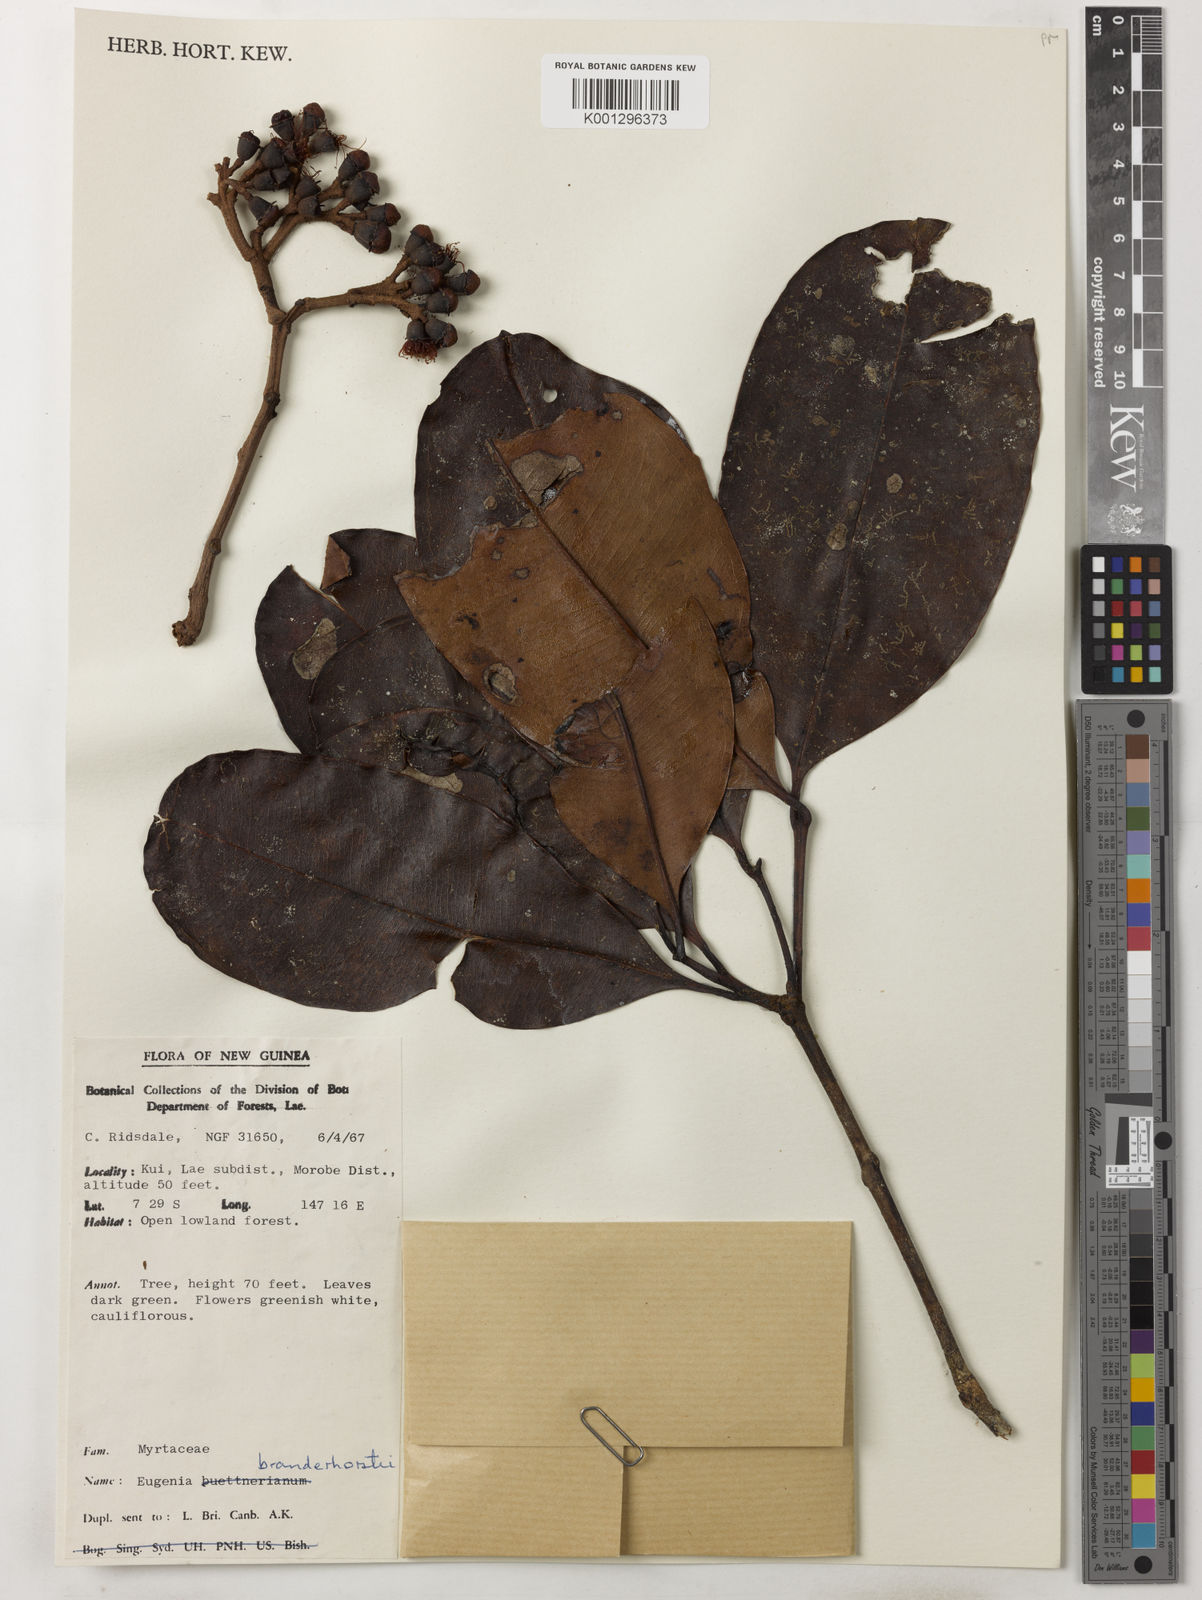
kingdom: Plantae
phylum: Tracheophyta
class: Magnoliopsida
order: Myrtales
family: Myrtaceae
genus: Syzygium
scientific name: Syzygium branderhorstii
